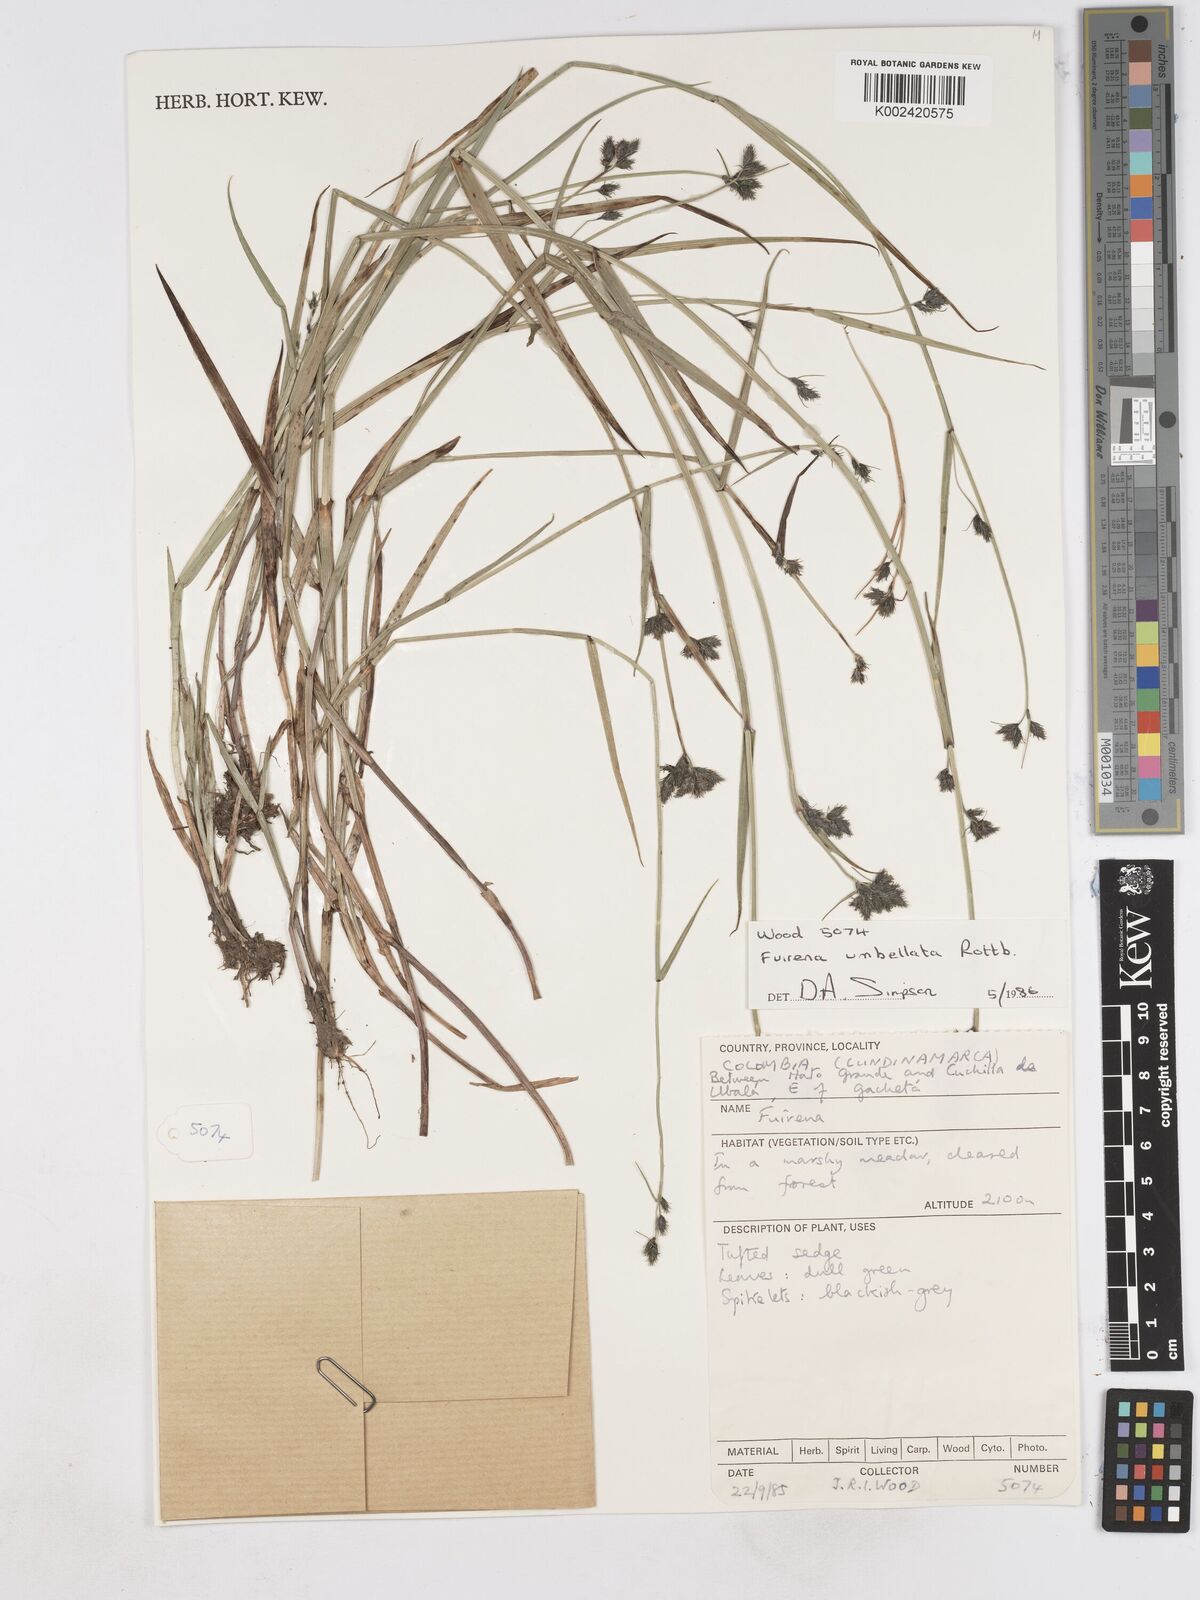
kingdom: Plantae
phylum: Tracheophyta
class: Liliopsida
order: Poales
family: Cyperaceae
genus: Fuirena
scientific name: Fuirena umbellata
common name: Yefen
